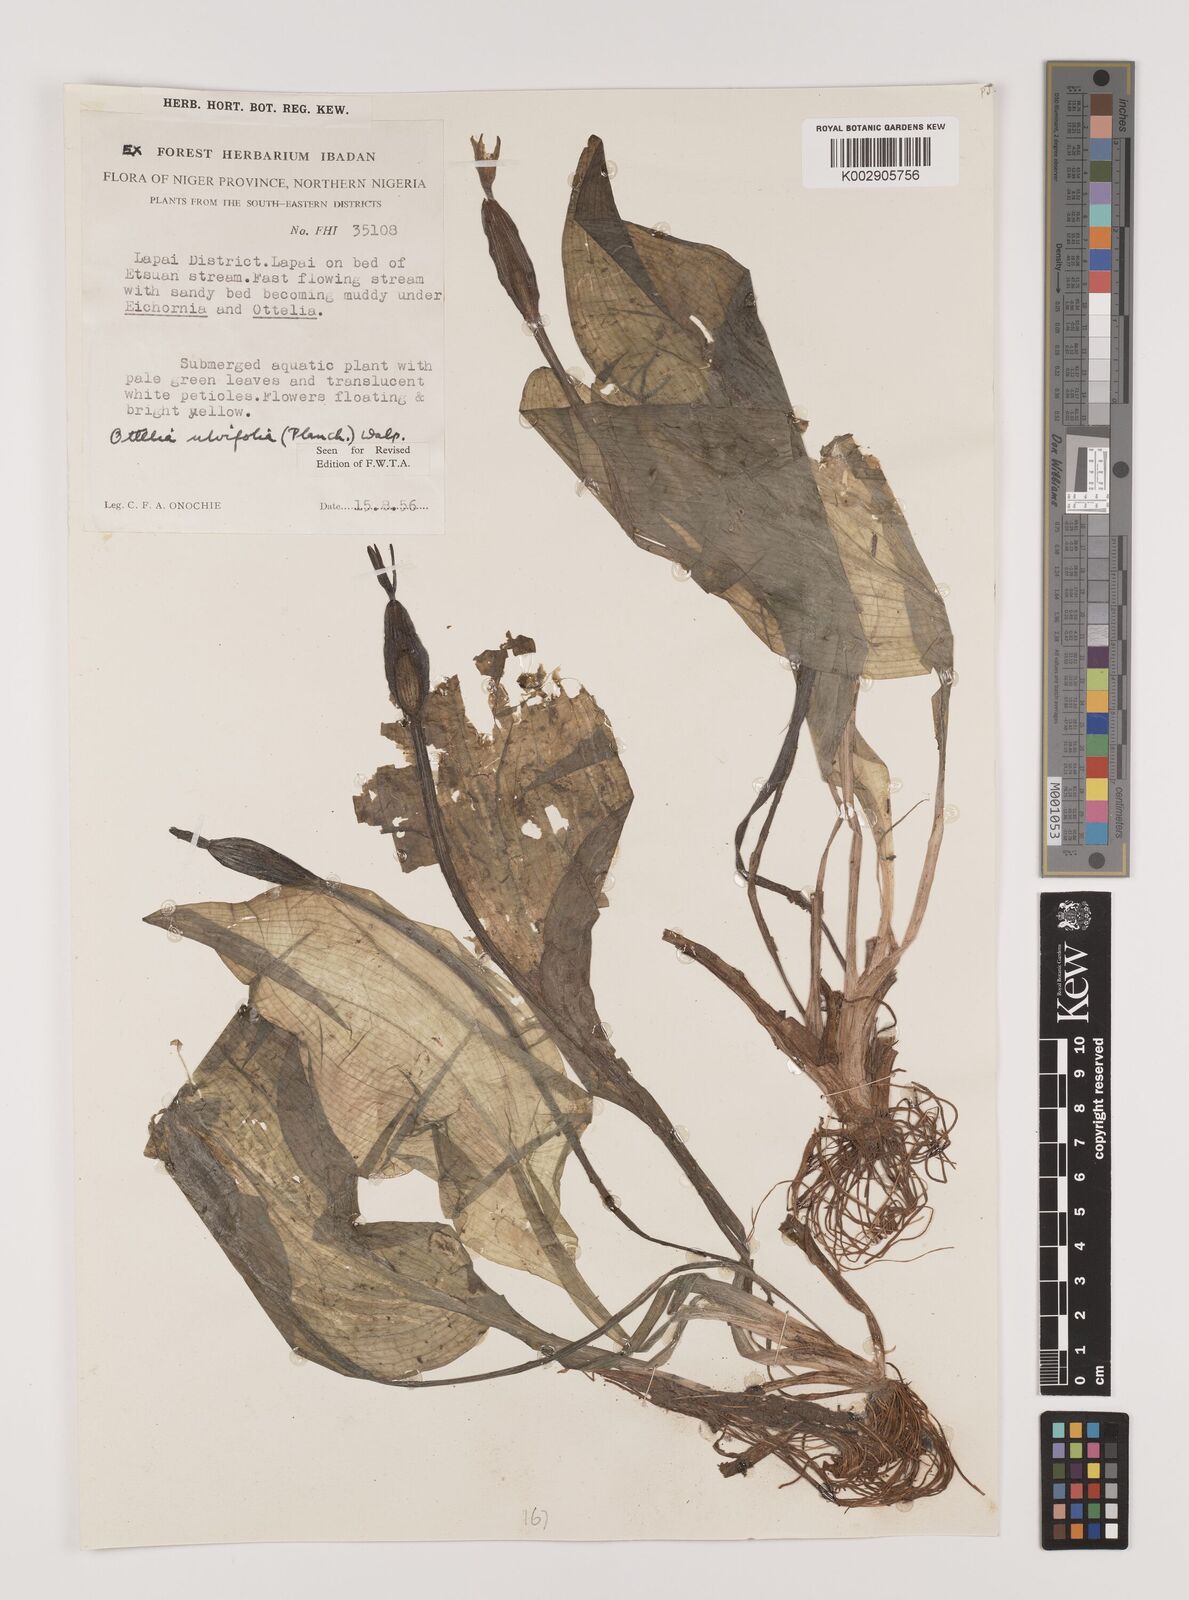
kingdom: Plantae
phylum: Tracheophyta
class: Liliopsida
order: Alismatales
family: Hydrocharitaceae
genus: Ottelia
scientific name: Ottelia ulvifolia
